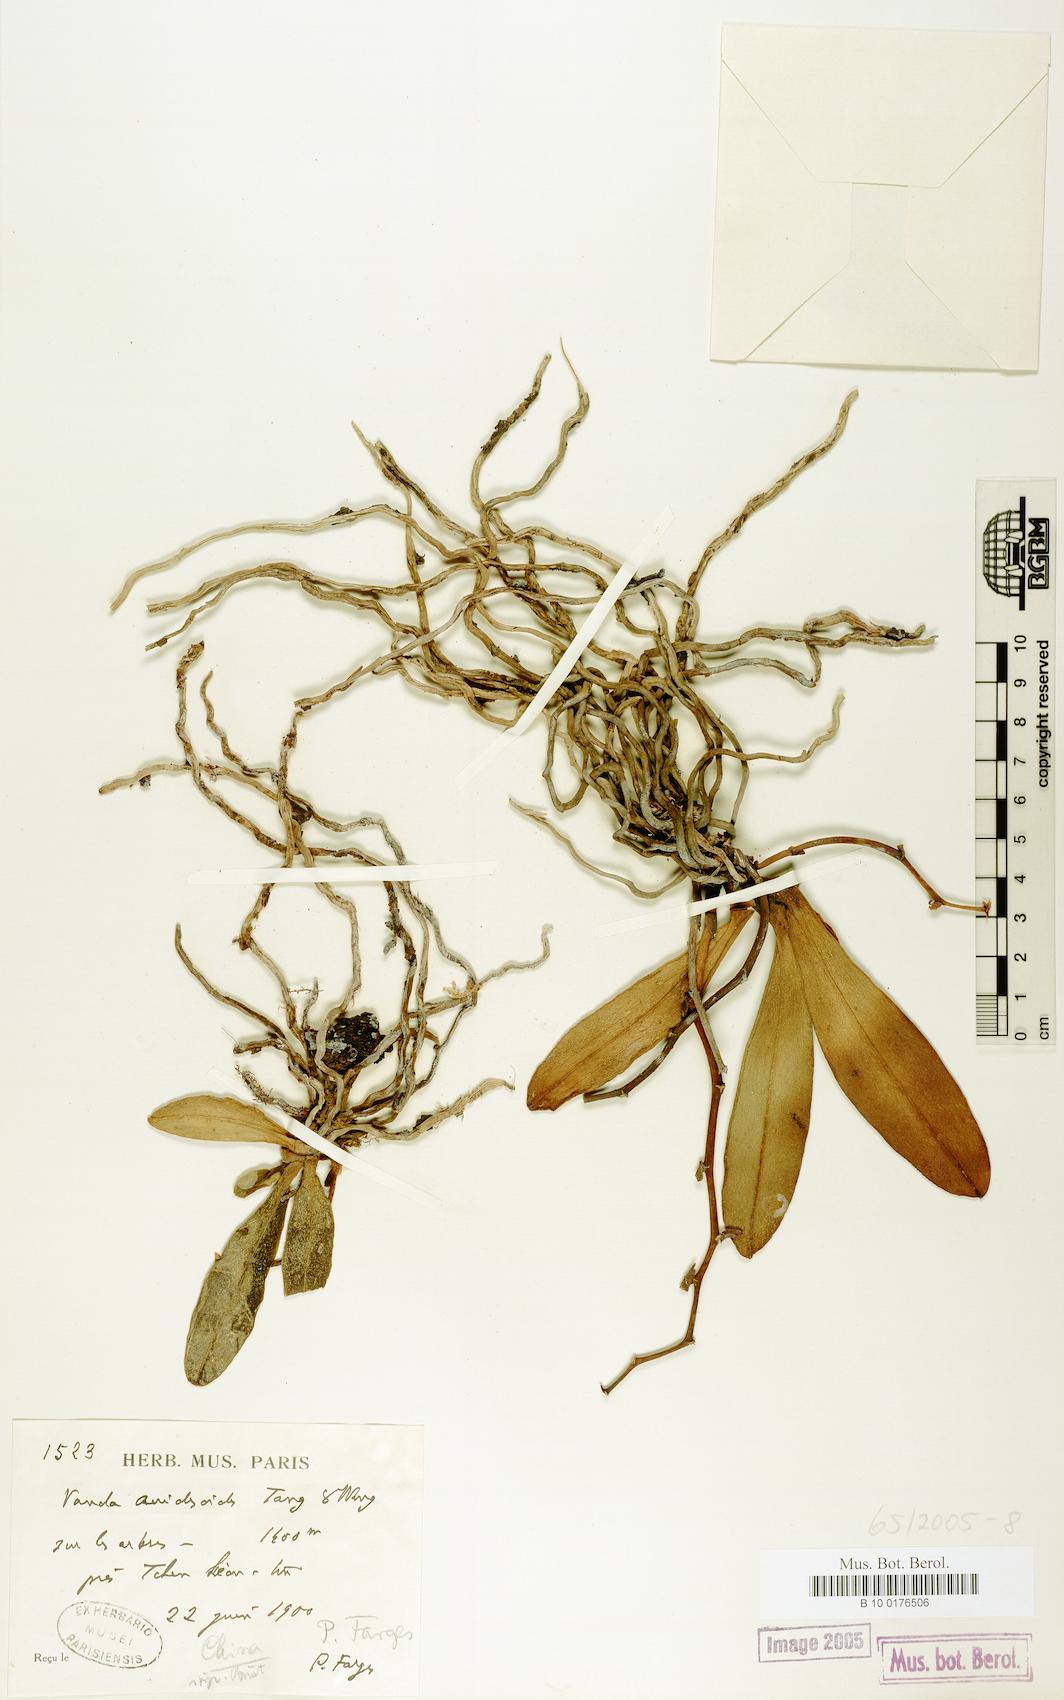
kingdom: Plantae
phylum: Tracheophyta
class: Liliopsida
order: Asparagales
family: Orchidaceae
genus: Vanda
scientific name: Vanda
